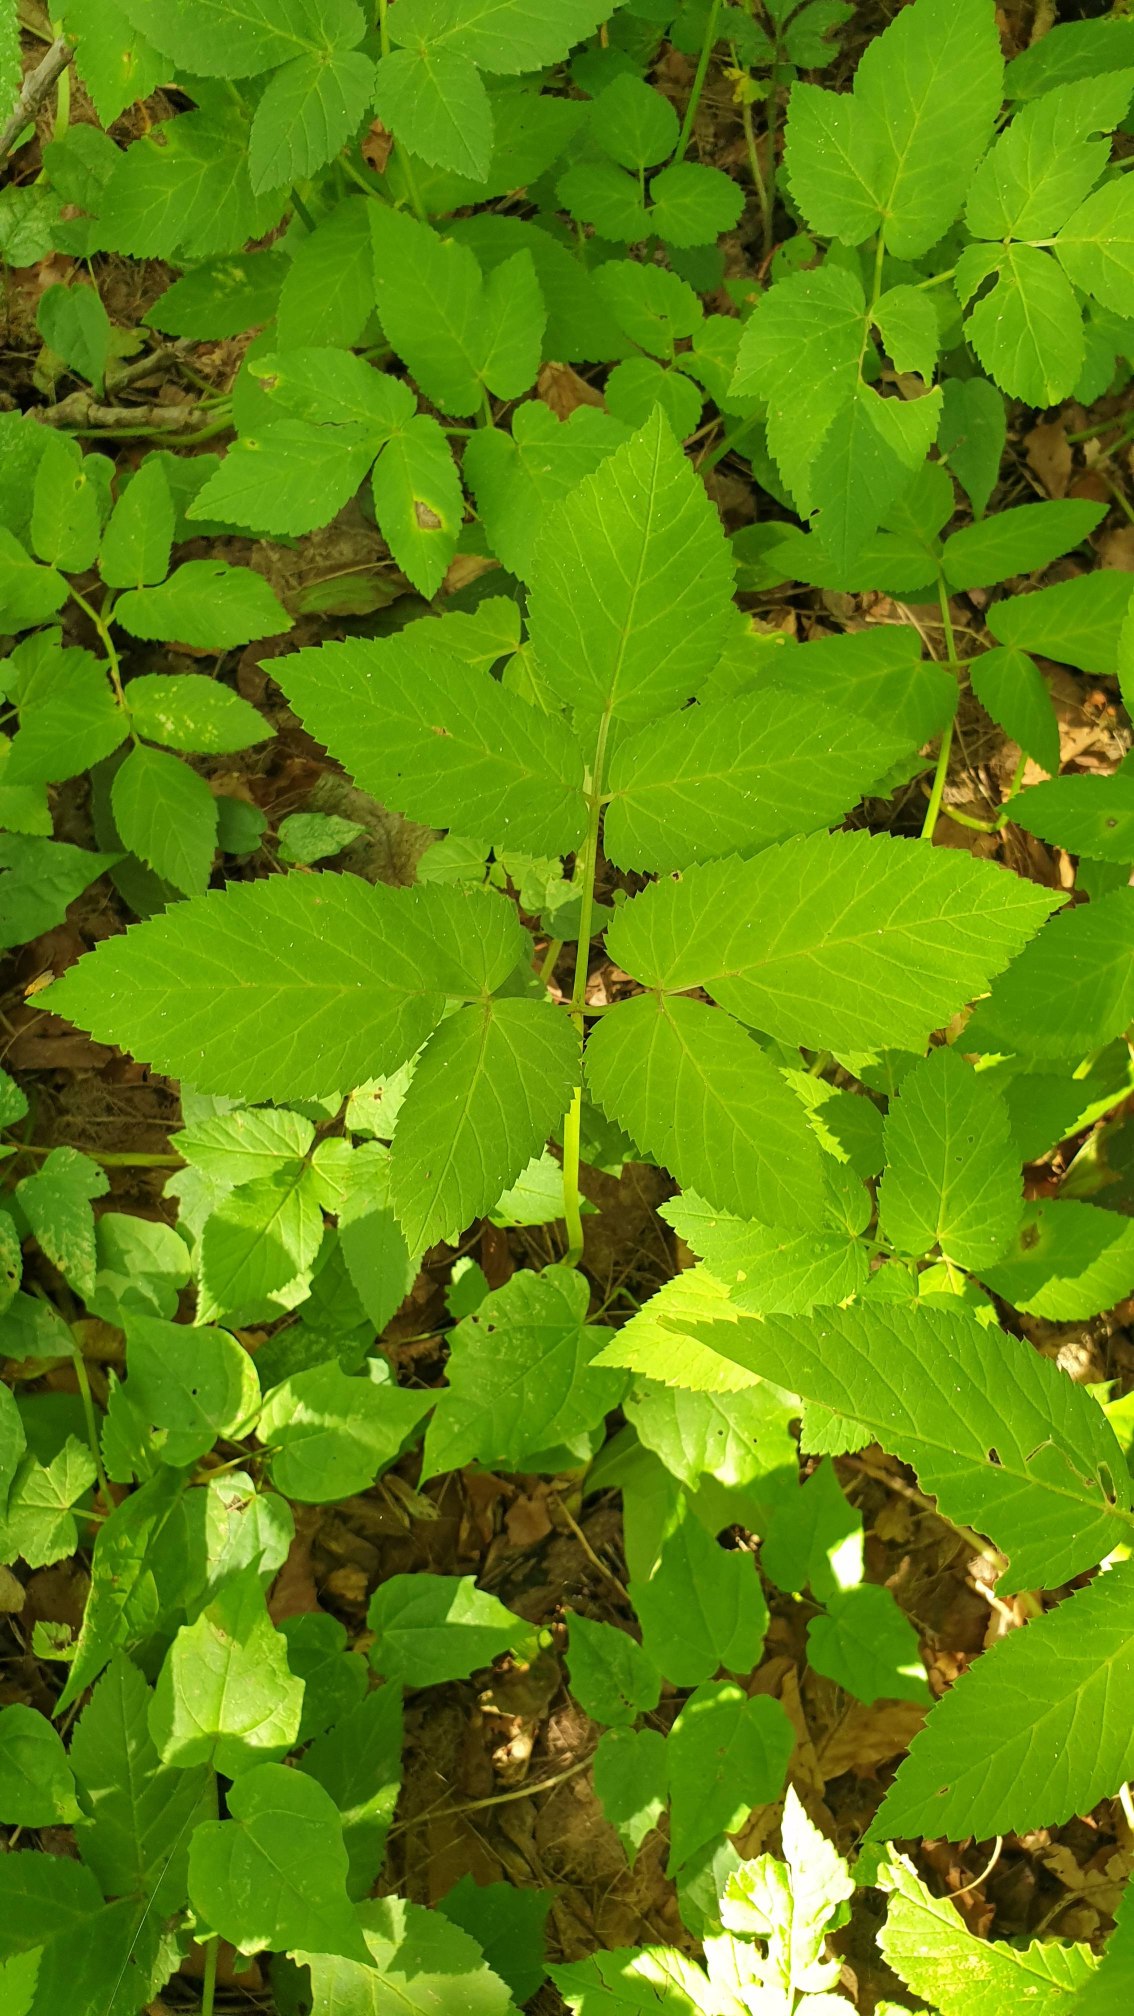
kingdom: Plantae
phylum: Tracheophyta
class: Magnoliopsida
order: Apiales
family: Apiaceae
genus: Aegopodium
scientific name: Aegopodium podagraria
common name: Skvalderkål
